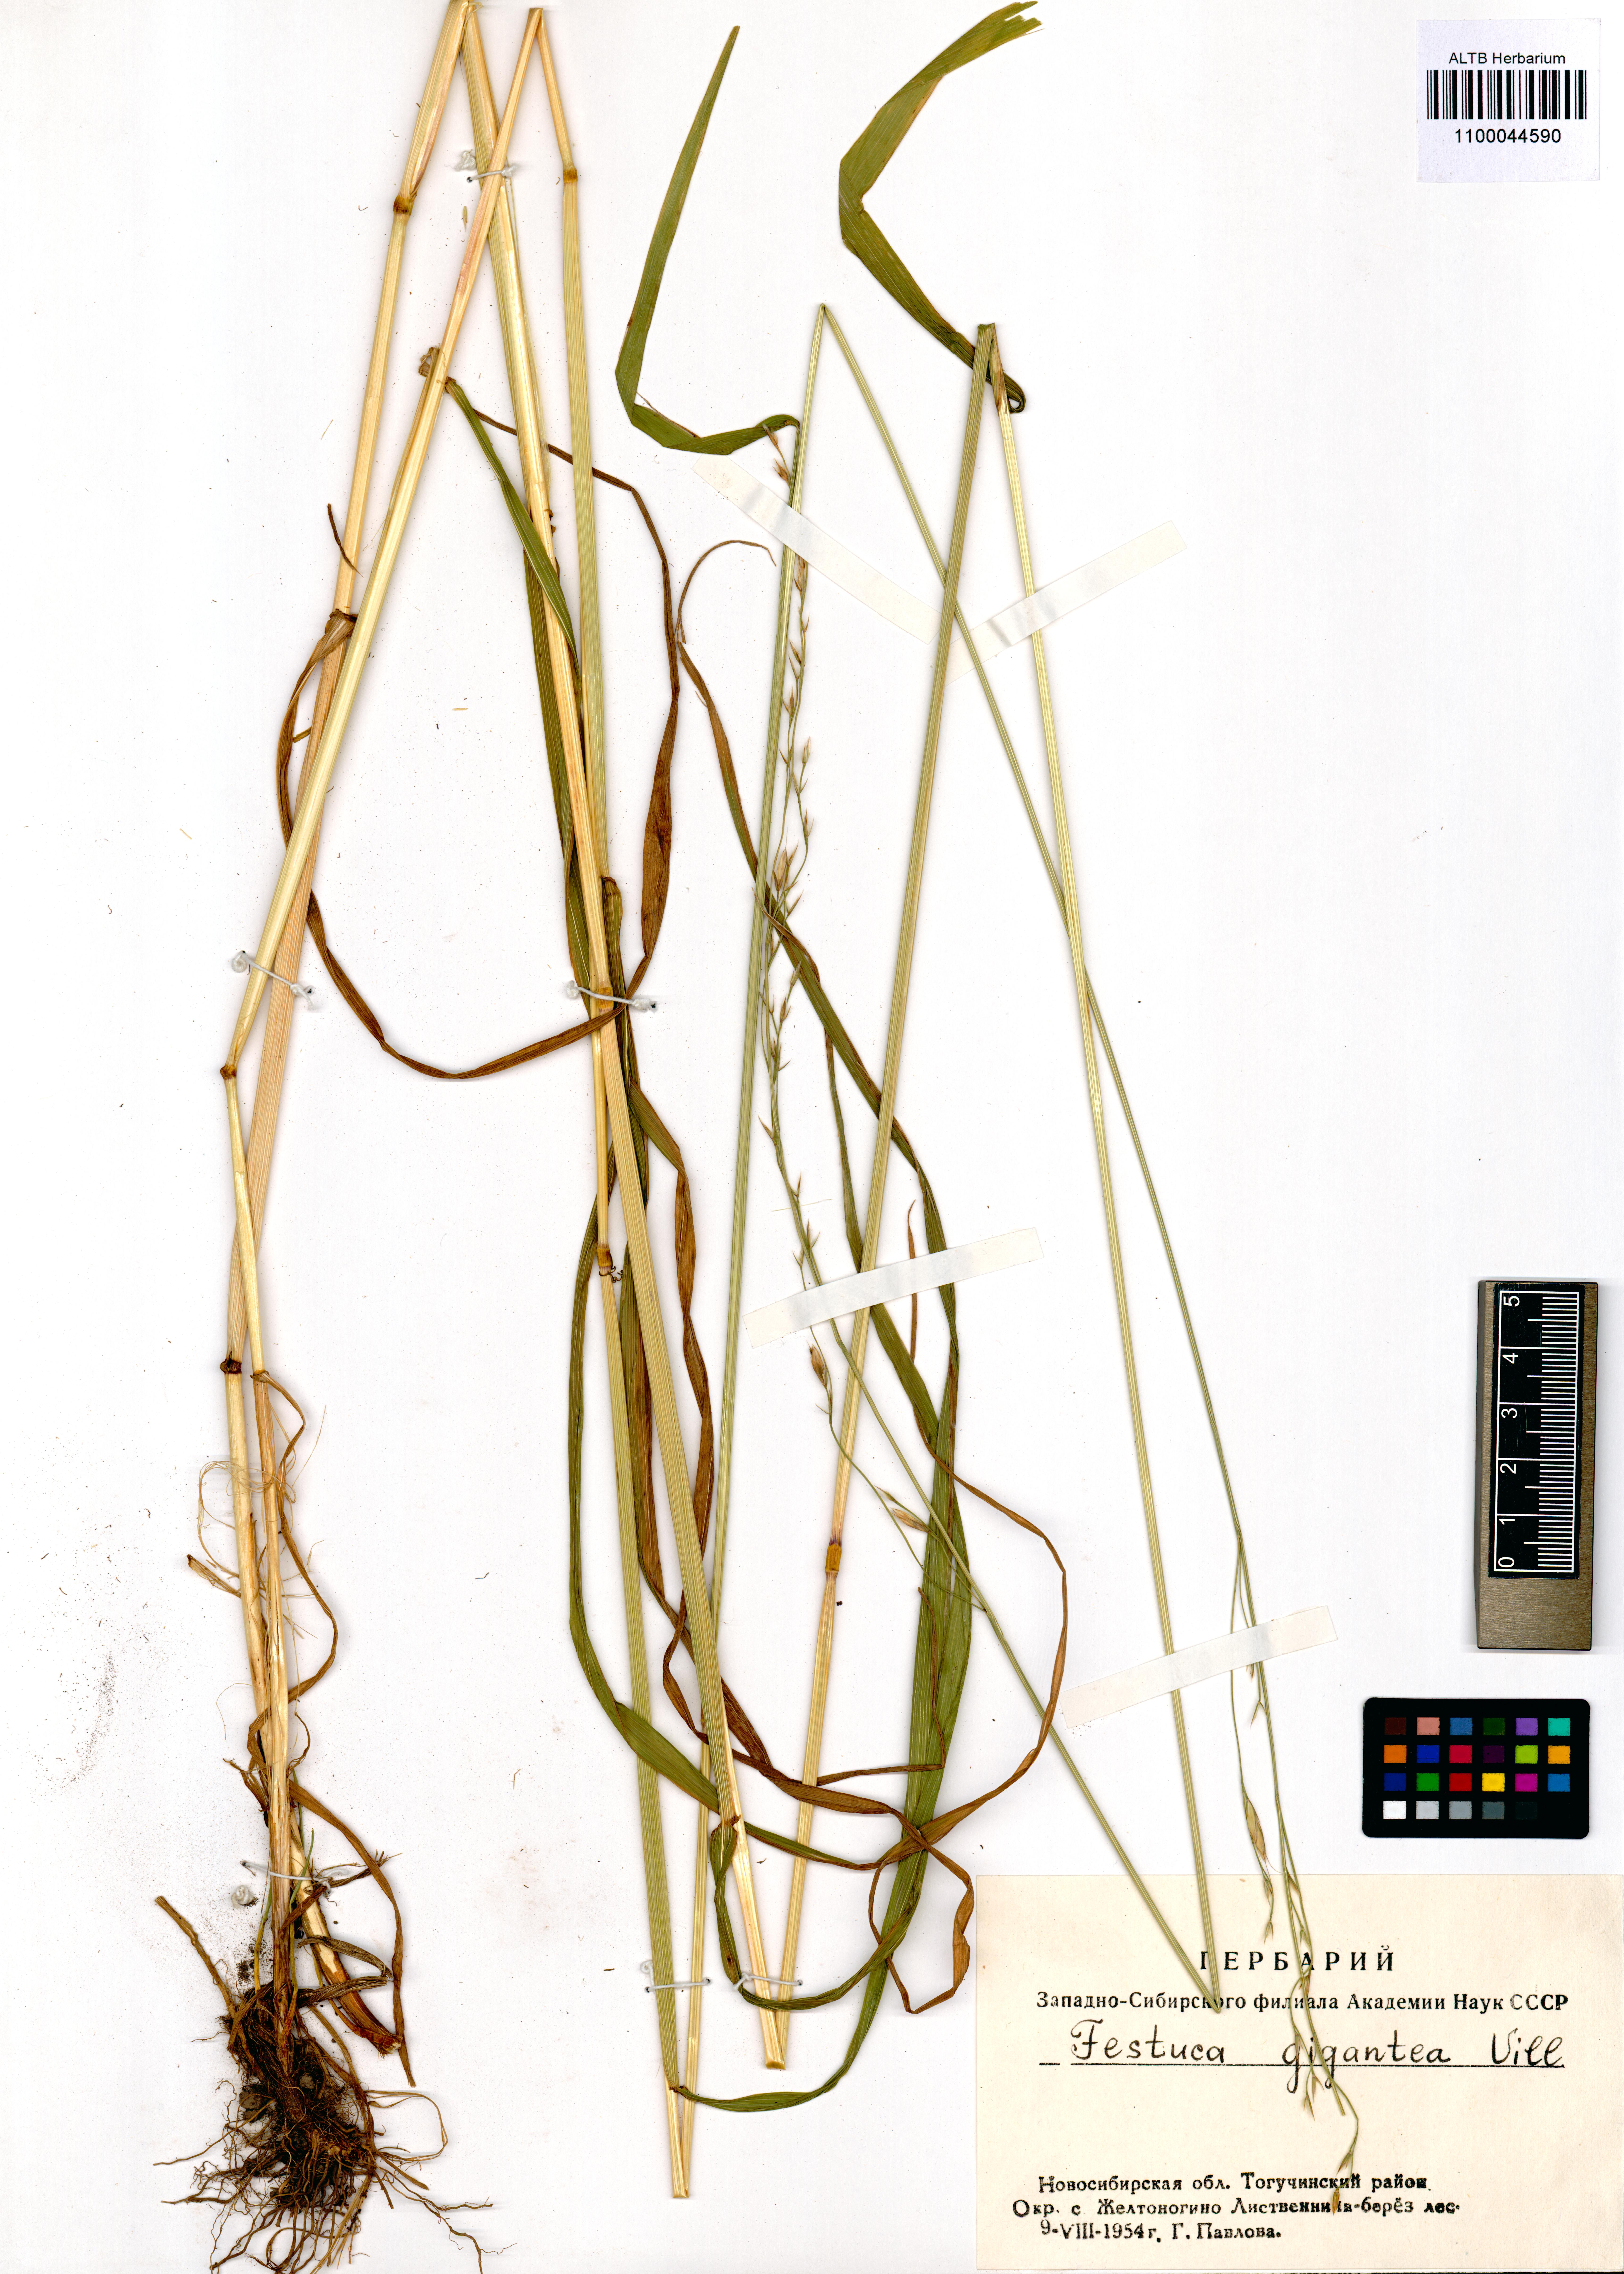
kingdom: Plantae
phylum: Tracheophyta
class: Liliopsida
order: Poales
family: Poaceae
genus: Lolium
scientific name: Lolium giganteum
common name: Giant fescue
